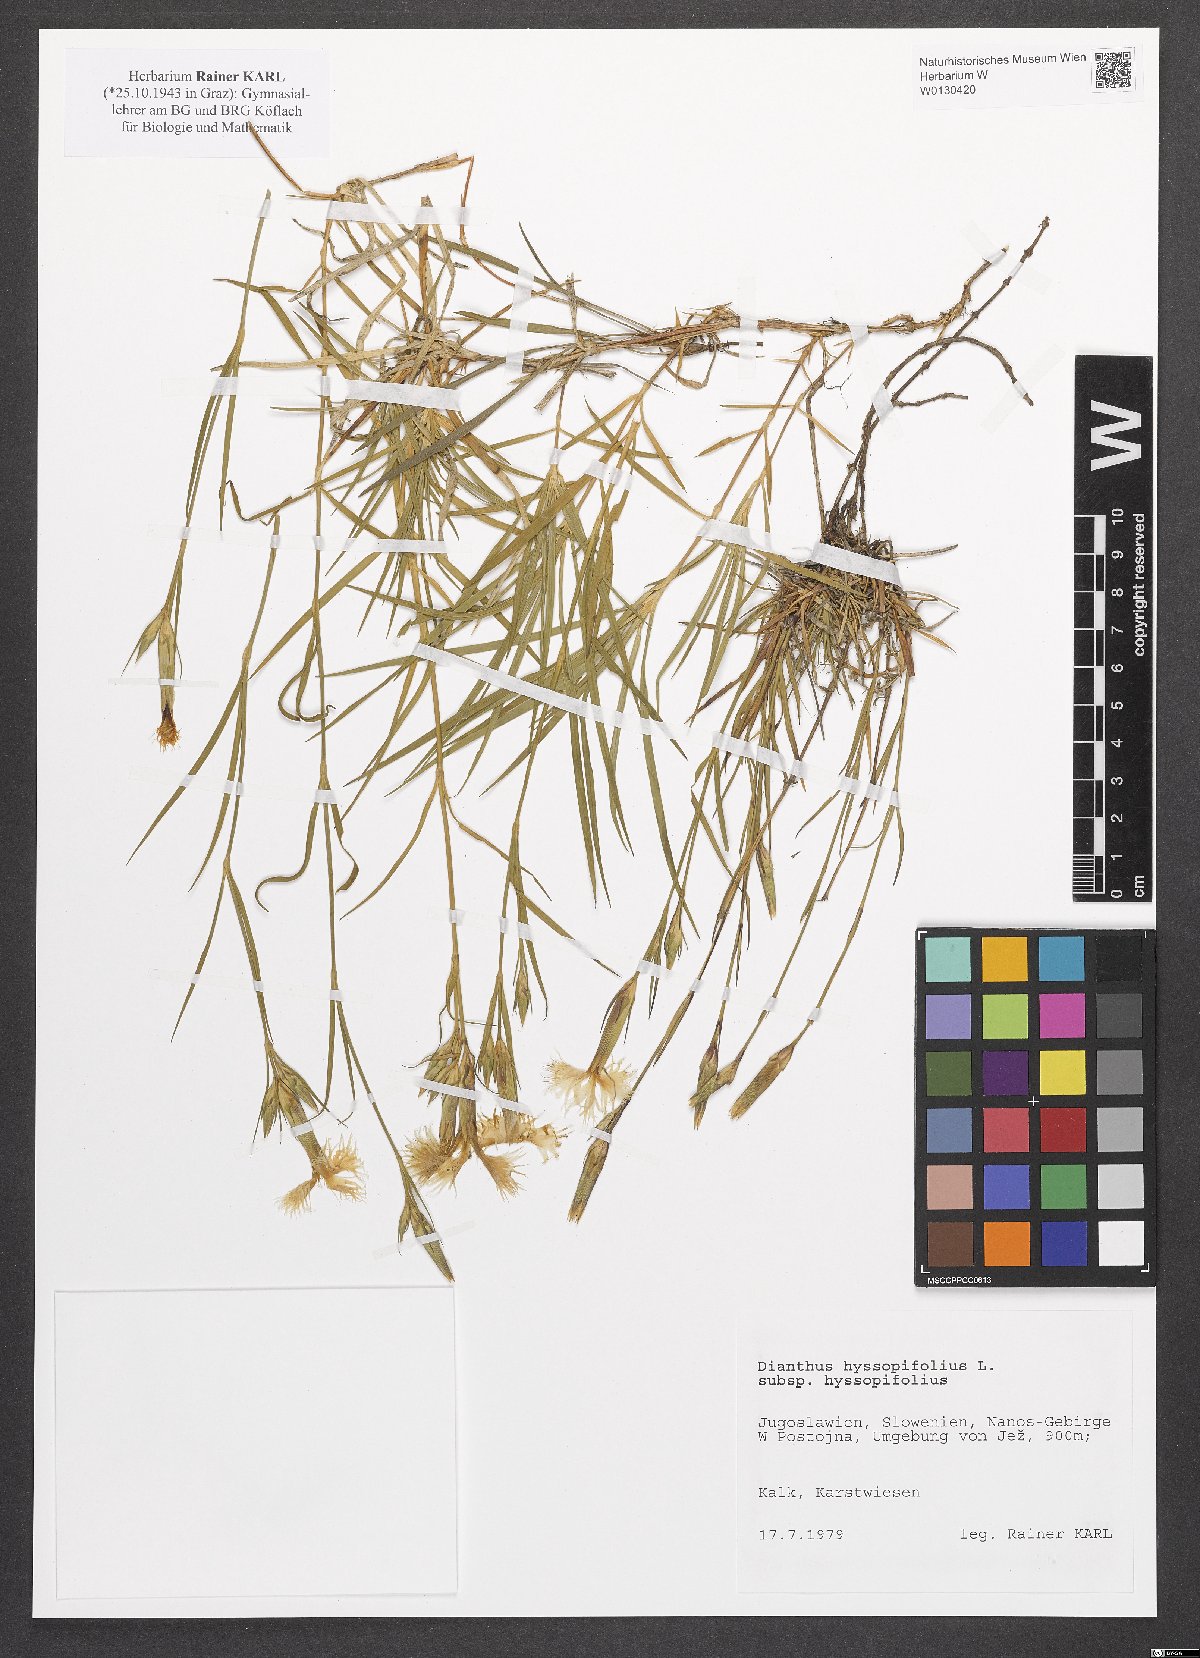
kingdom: Plantae
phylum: Tracheophyta
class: Magnoliopsida
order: Caryophyllales
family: Caryophyllaceae
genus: Dianthus
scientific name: Dianthus hyssopifolius
